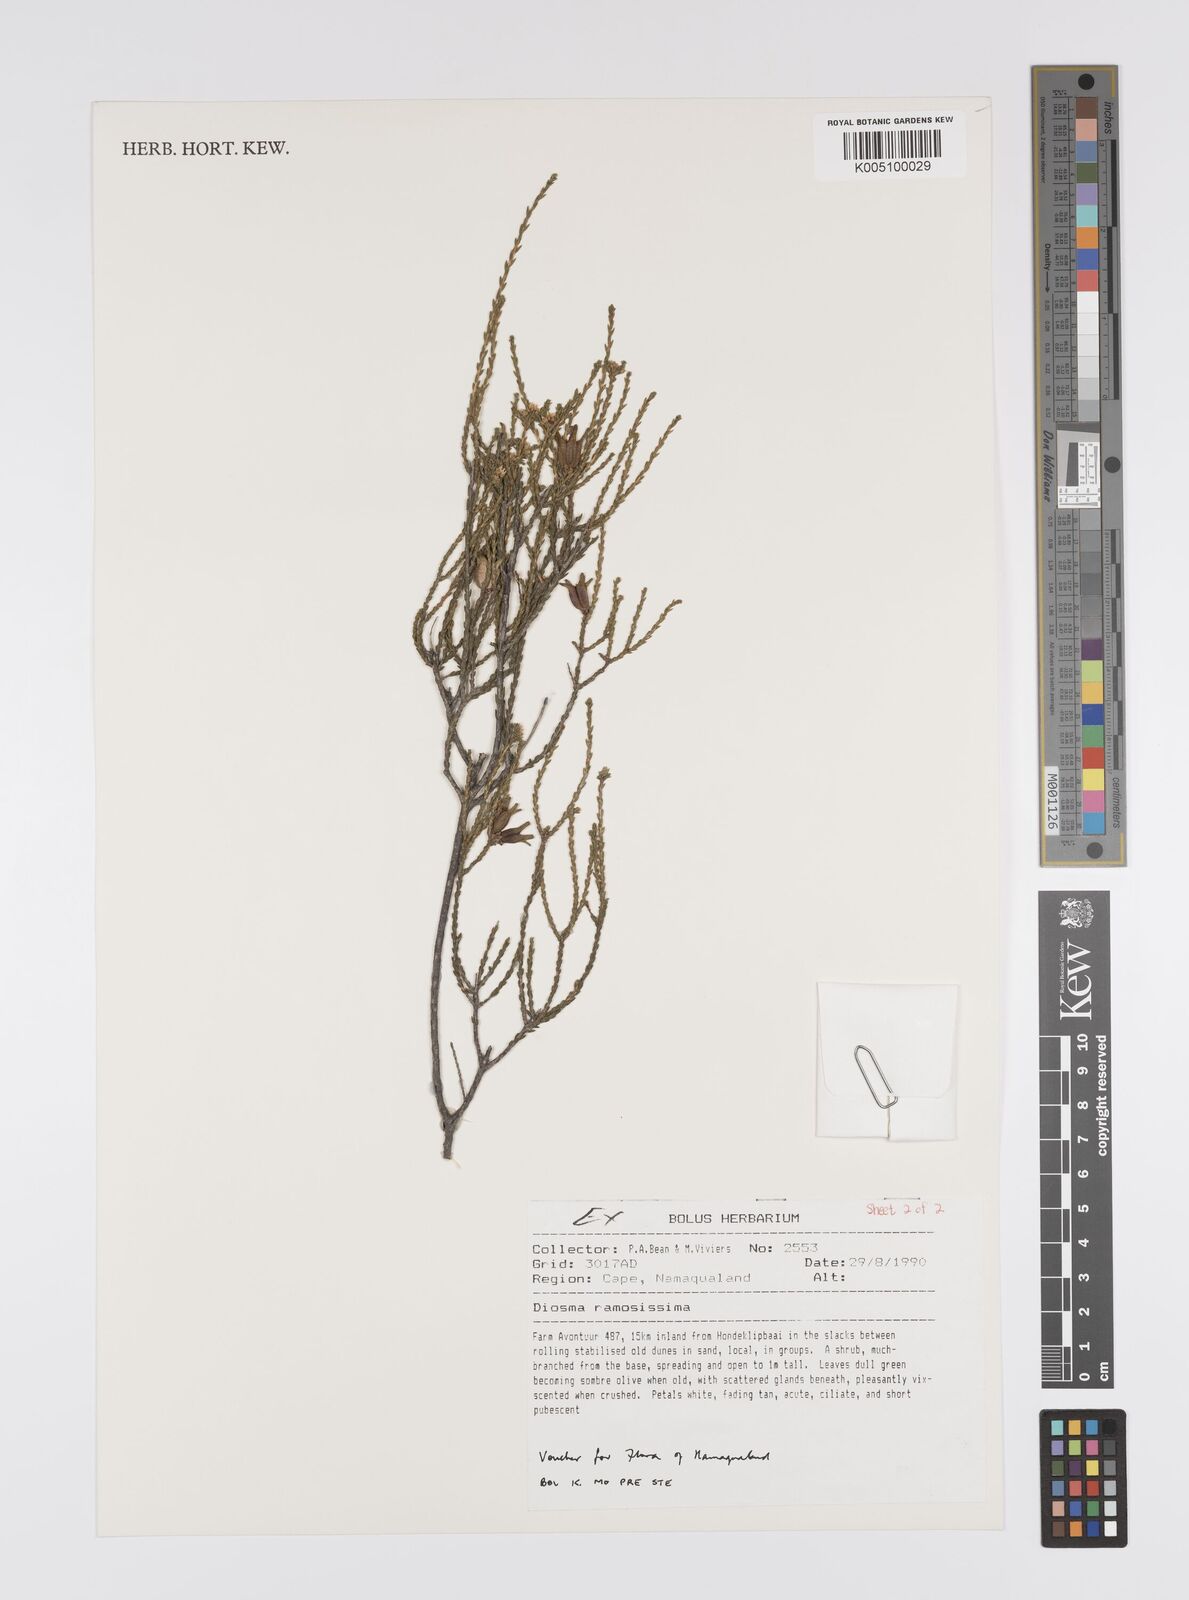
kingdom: Plantae
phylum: Tracheophyta
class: Magnoliopsida
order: Sapindales
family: Rutaceae
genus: Diosma
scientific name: Diosma ramosissima
